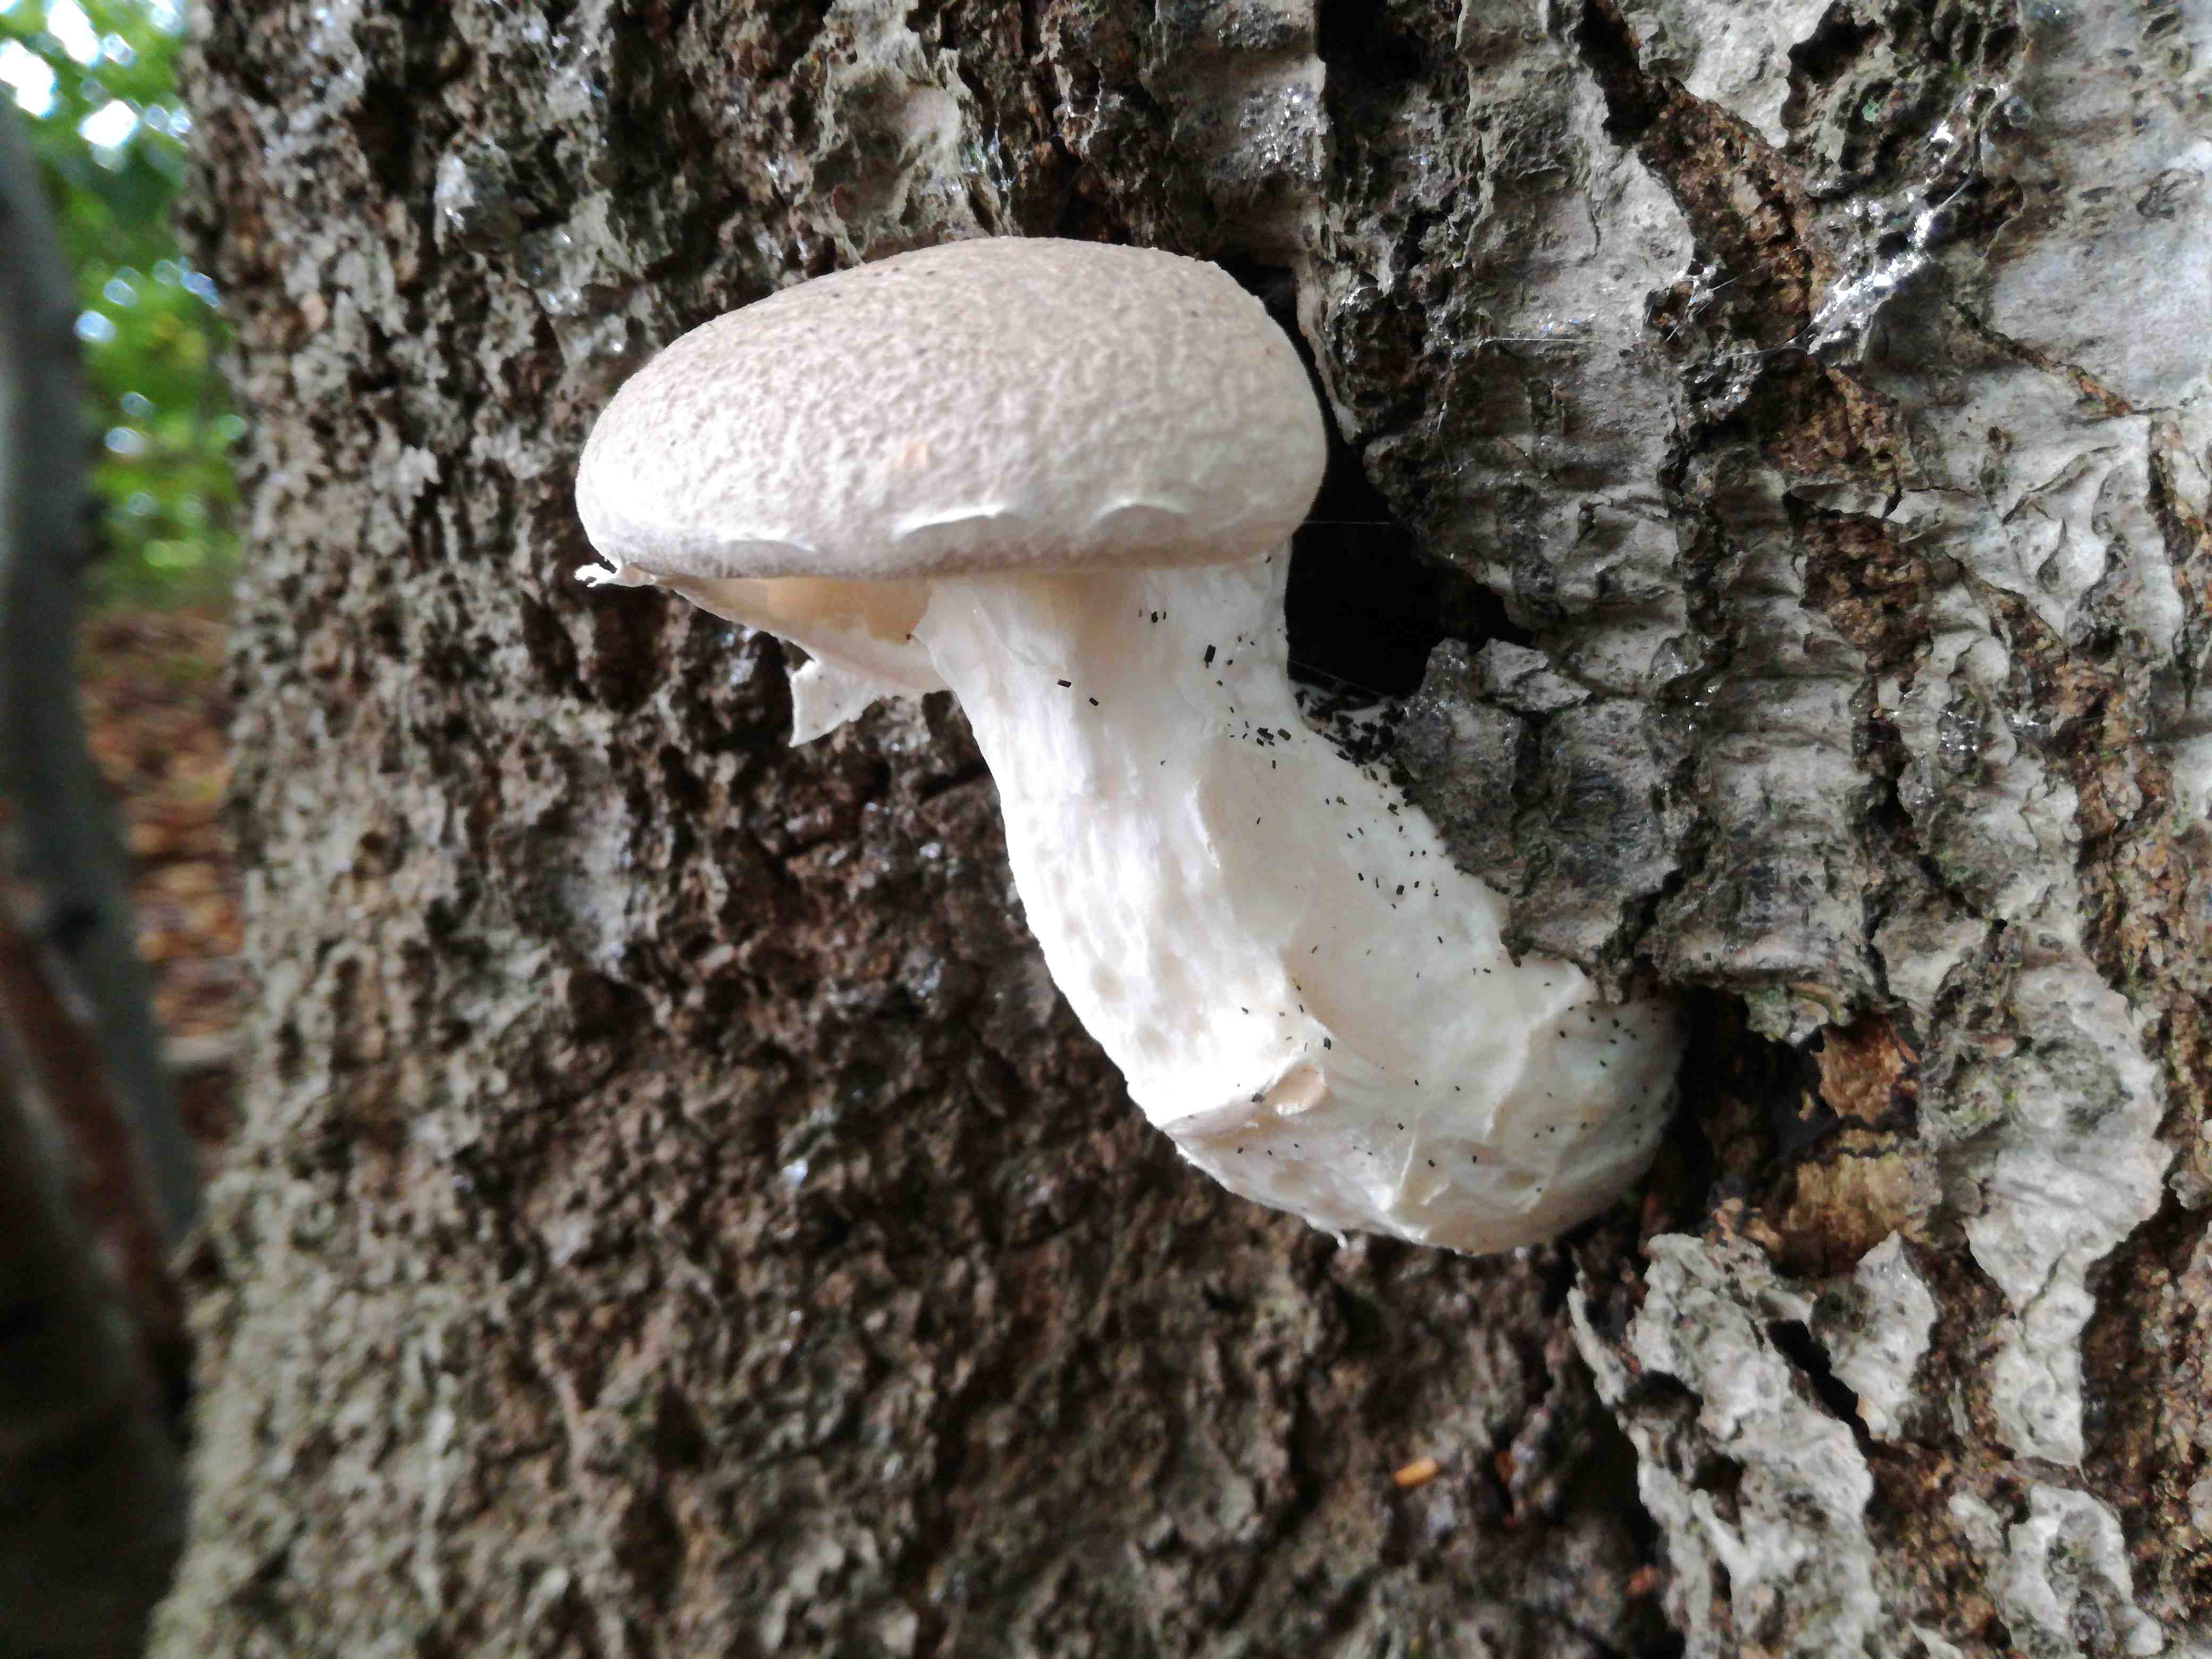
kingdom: Fungi
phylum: Basidiomycota
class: Agaricomycetes
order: Agaricales
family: Pleurotaceae
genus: Pleurotus
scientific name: Pleurotus dryinus
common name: korkagtig østershat
